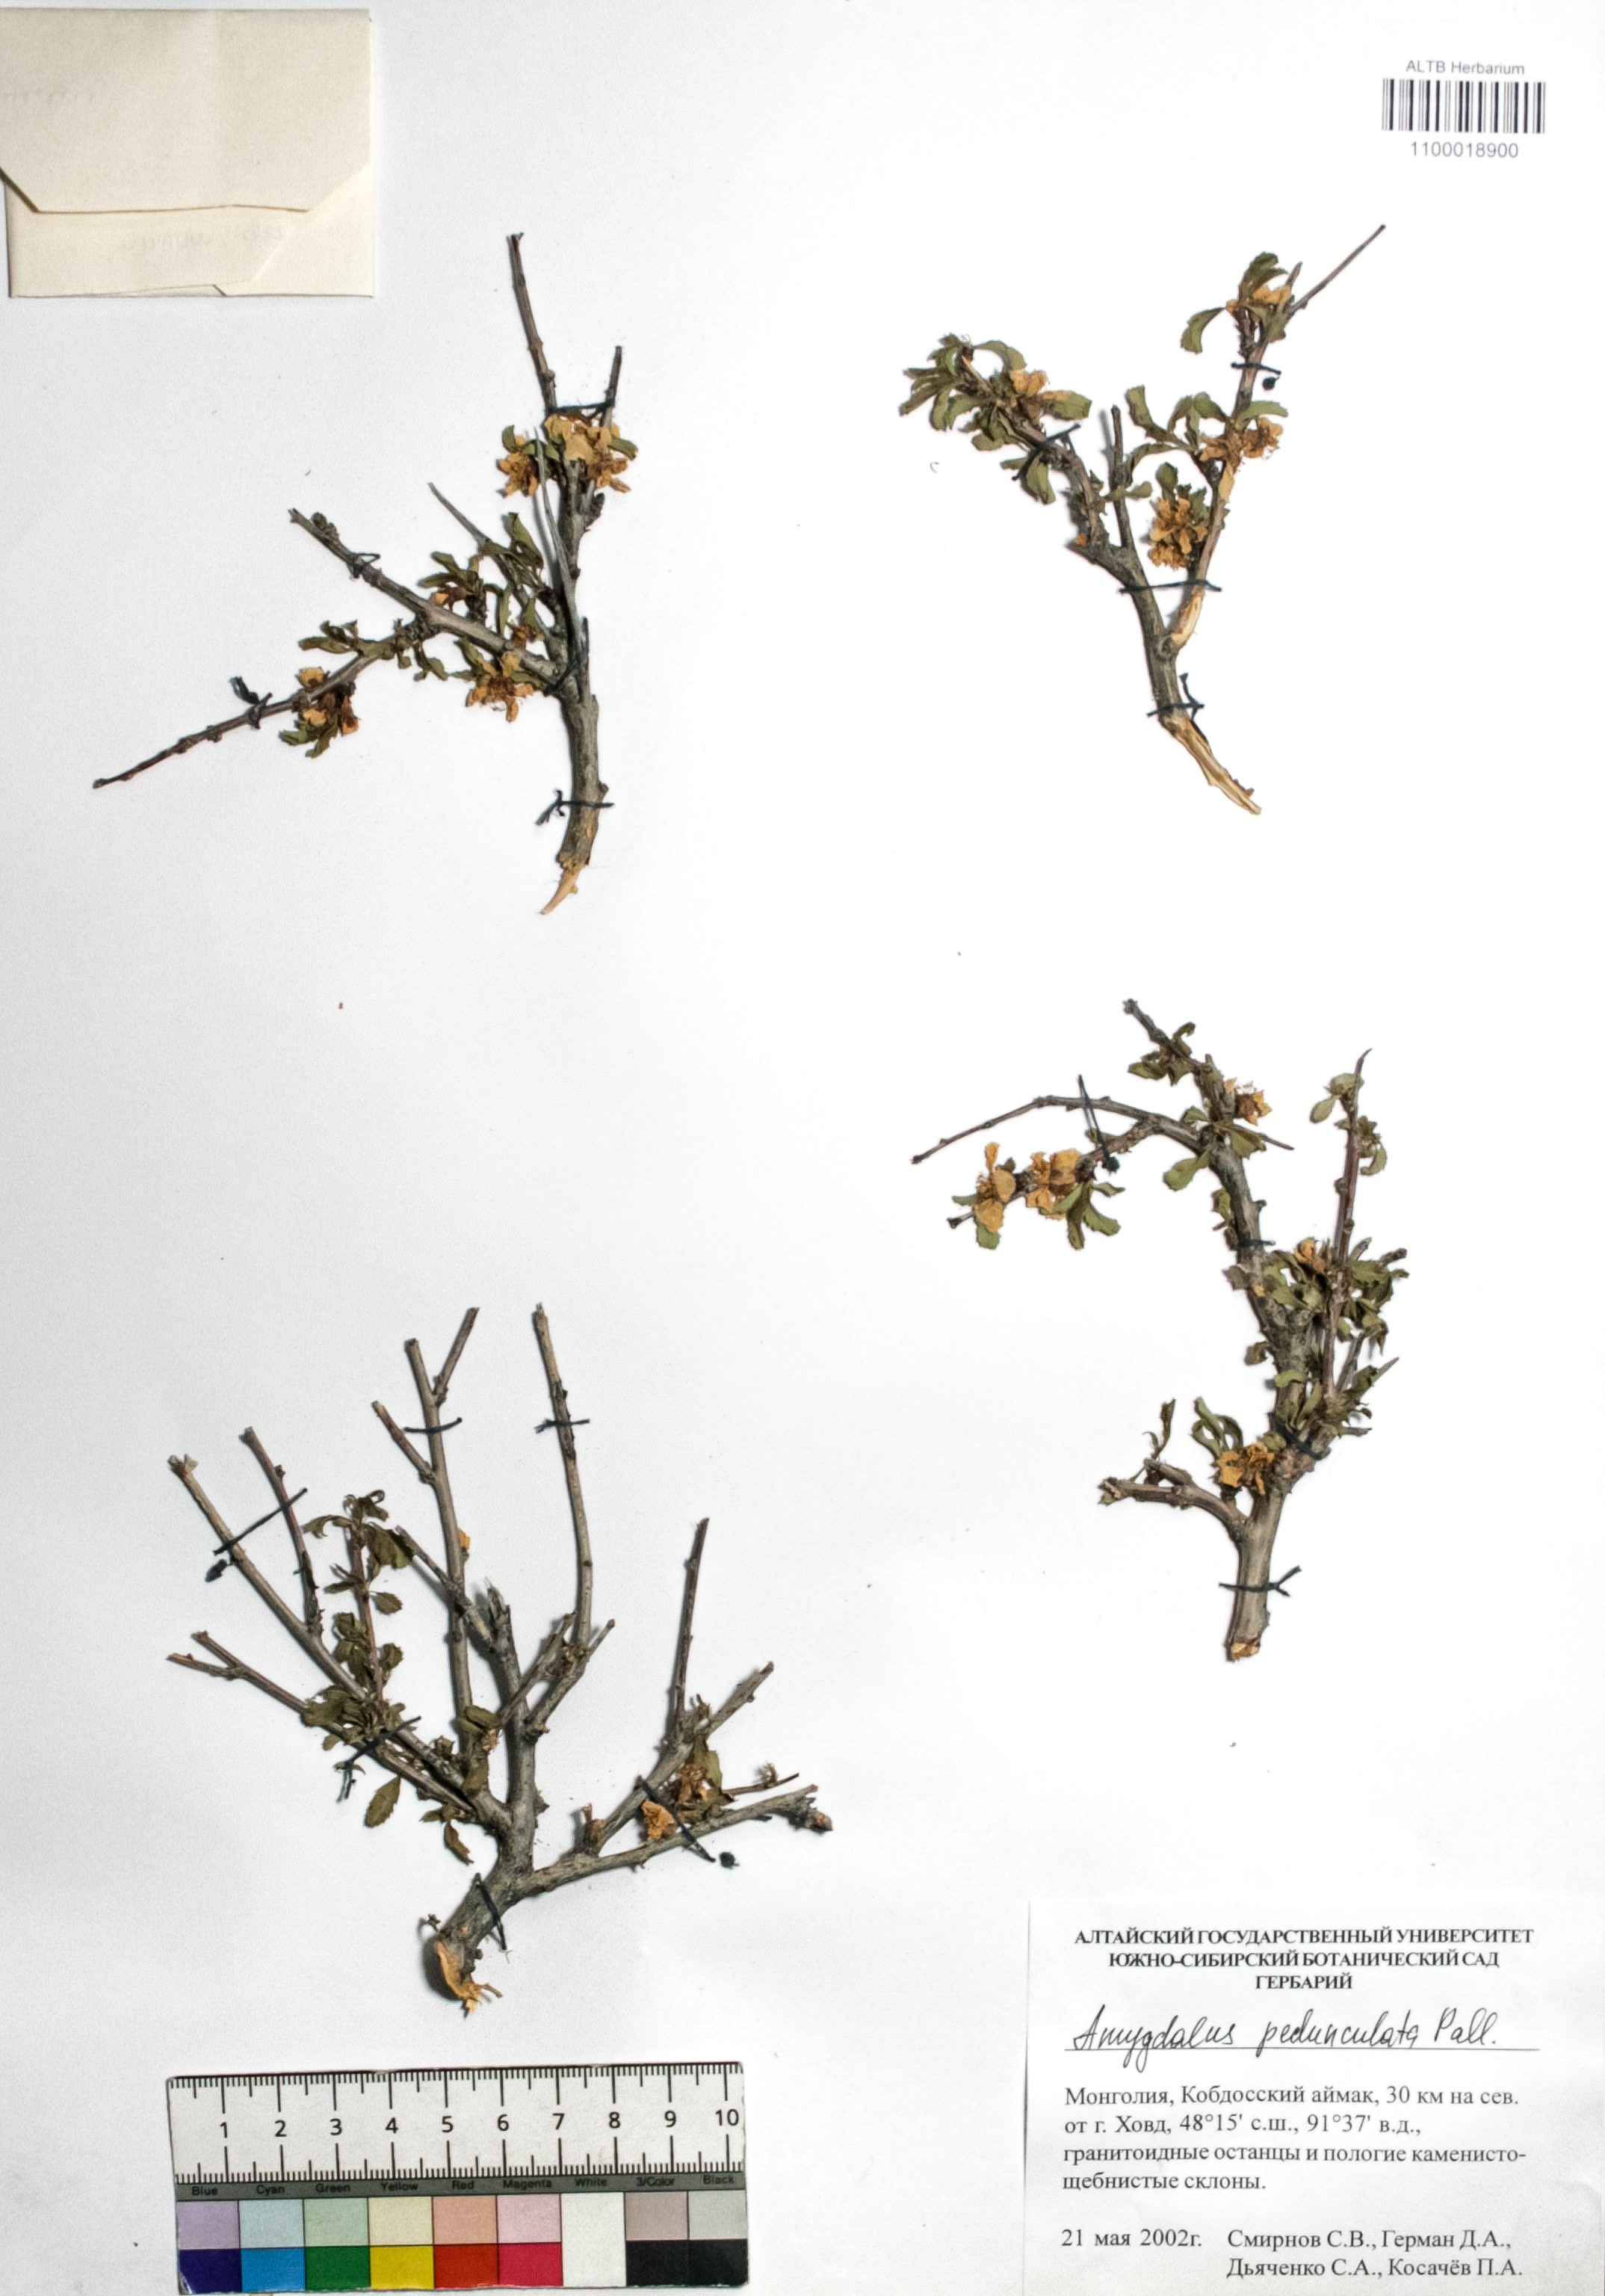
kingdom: Plantae
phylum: Tracheophyta
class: Magnoliopsida
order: Rosales
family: Rosaceae
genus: Prunus
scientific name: Prunus pedunculata
